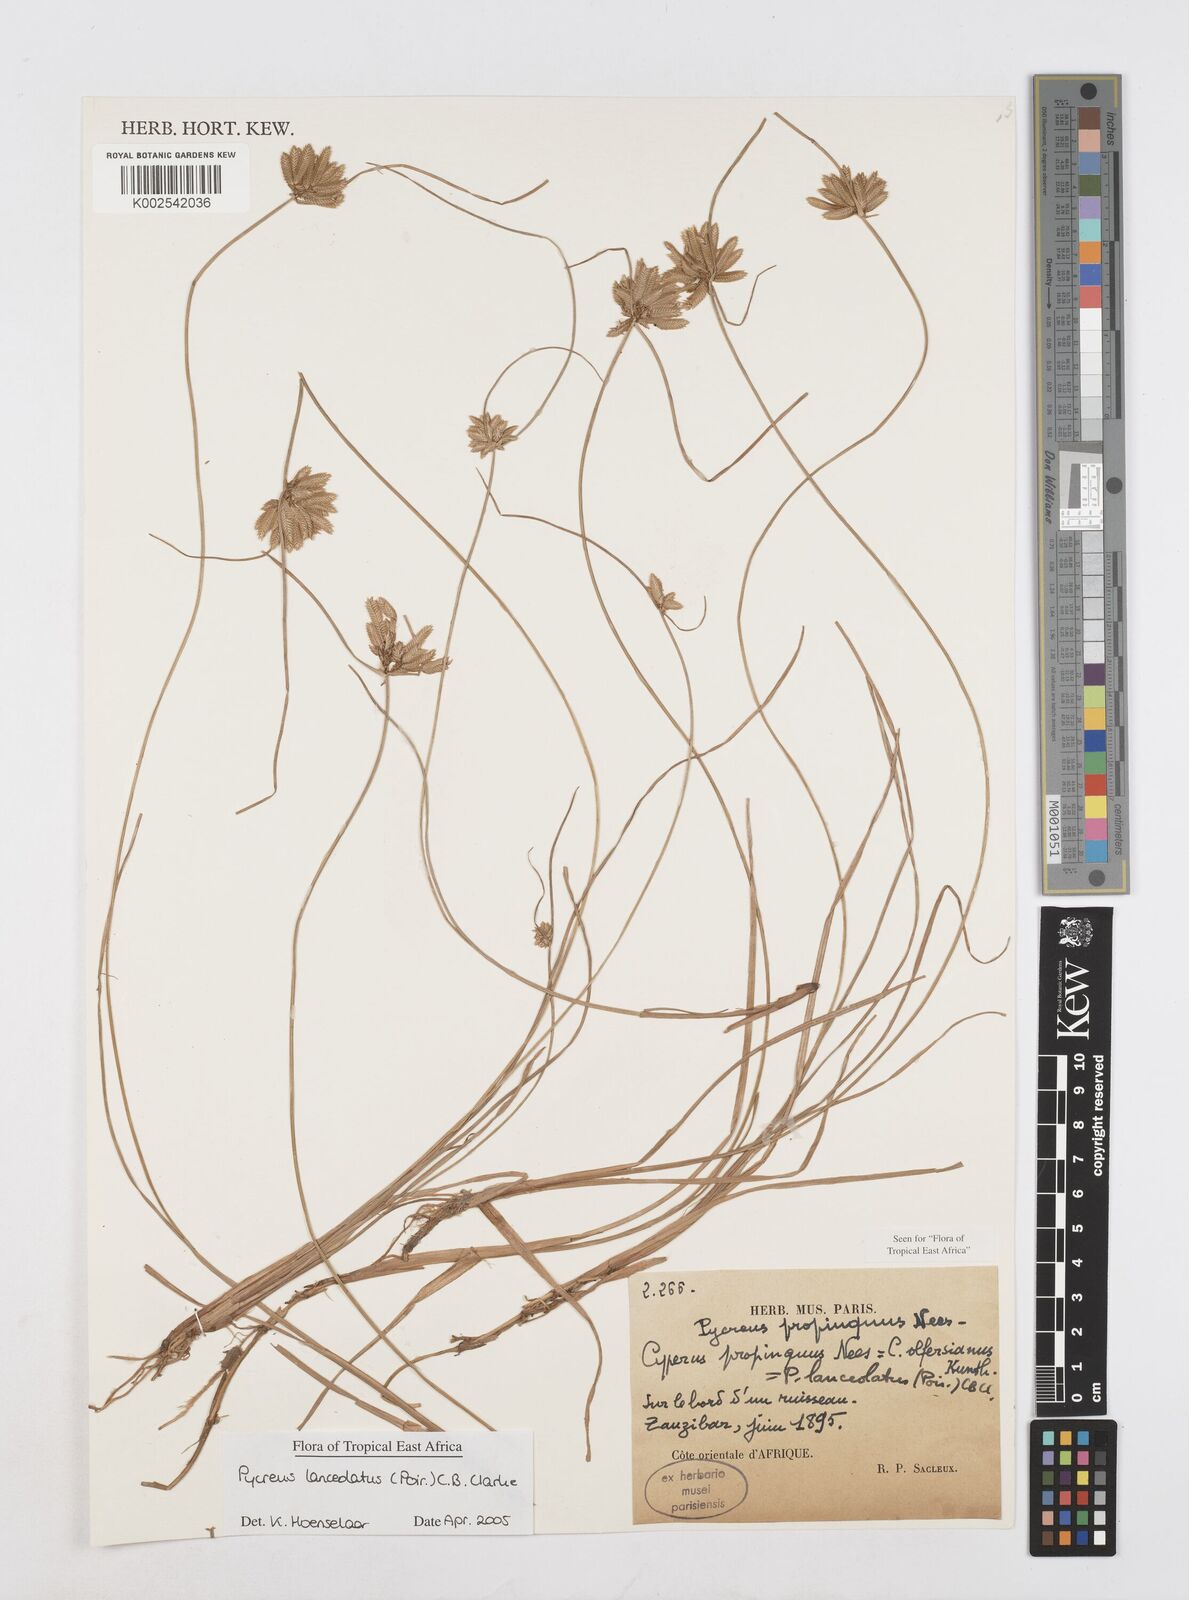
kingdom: Plantae
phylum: Tracheophyta
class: Liliopsida
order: Poales
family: Cyperaceae
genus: Cyperus
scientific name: Cyperus lanceolatus
